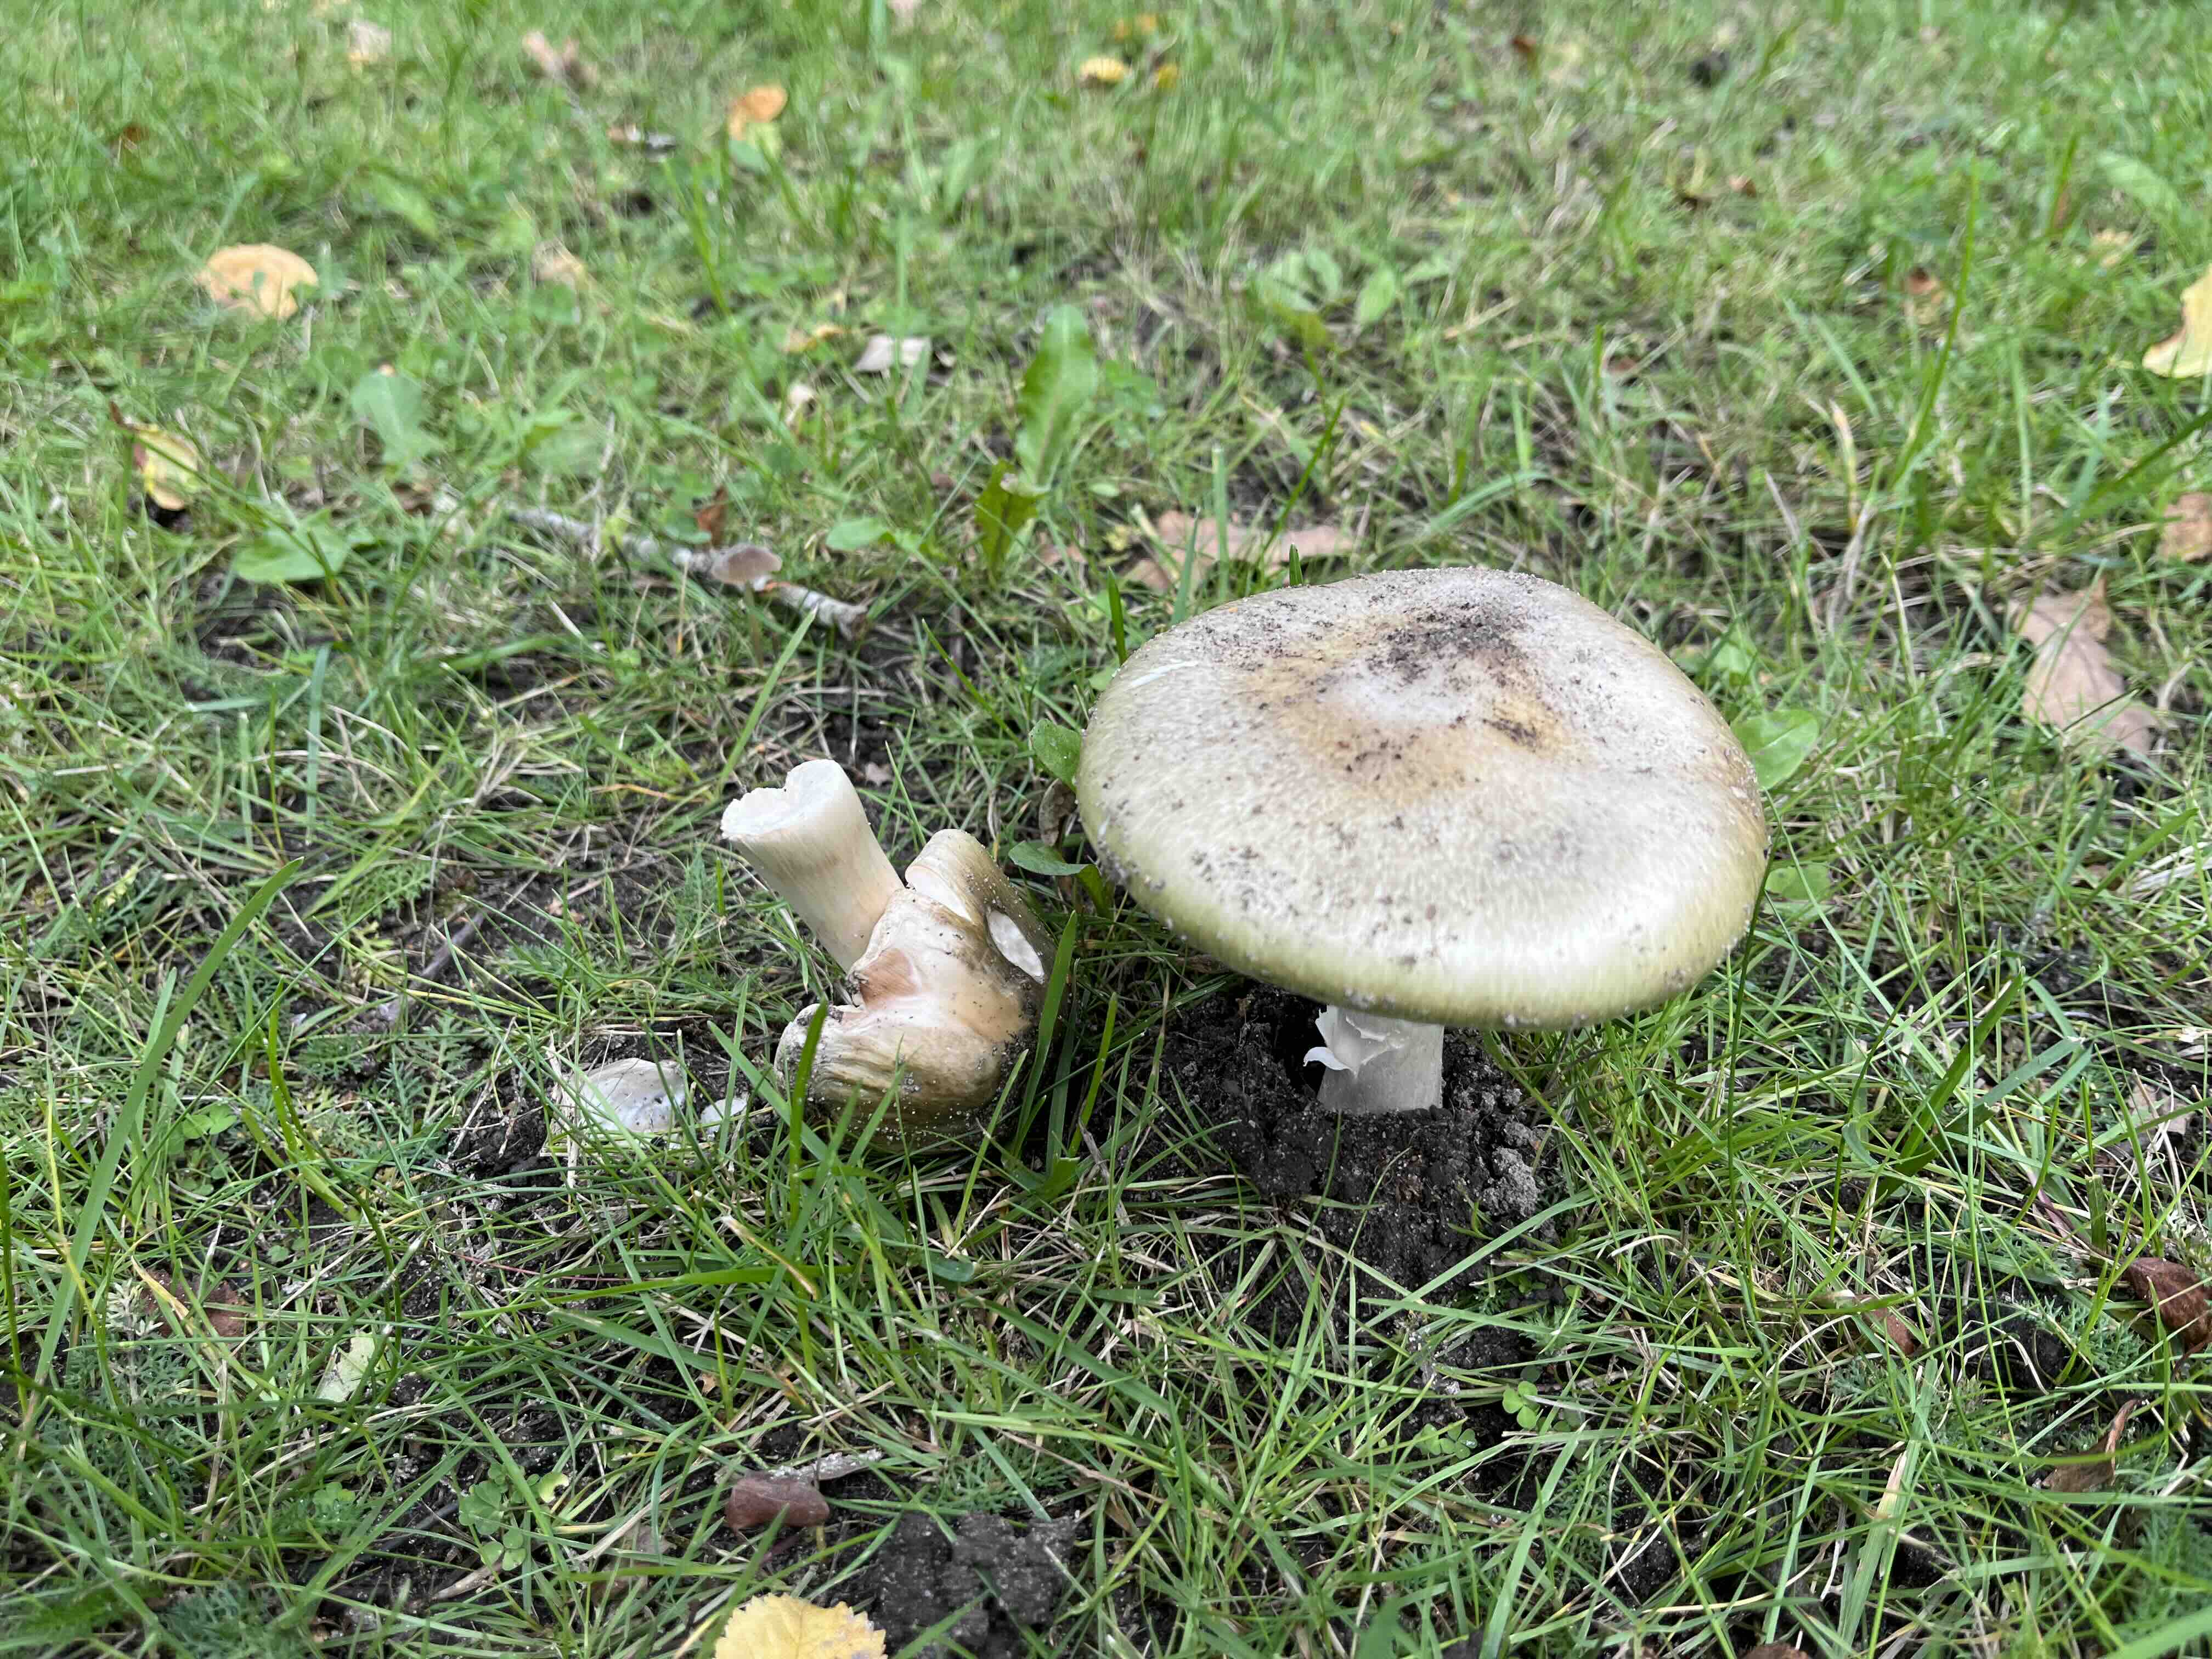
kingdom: Fungi
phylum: Basidiomycota
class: Agaricomycetes
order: Agaricales
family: Amanitaceae
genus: Amanita
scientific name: Amanita phalloides
